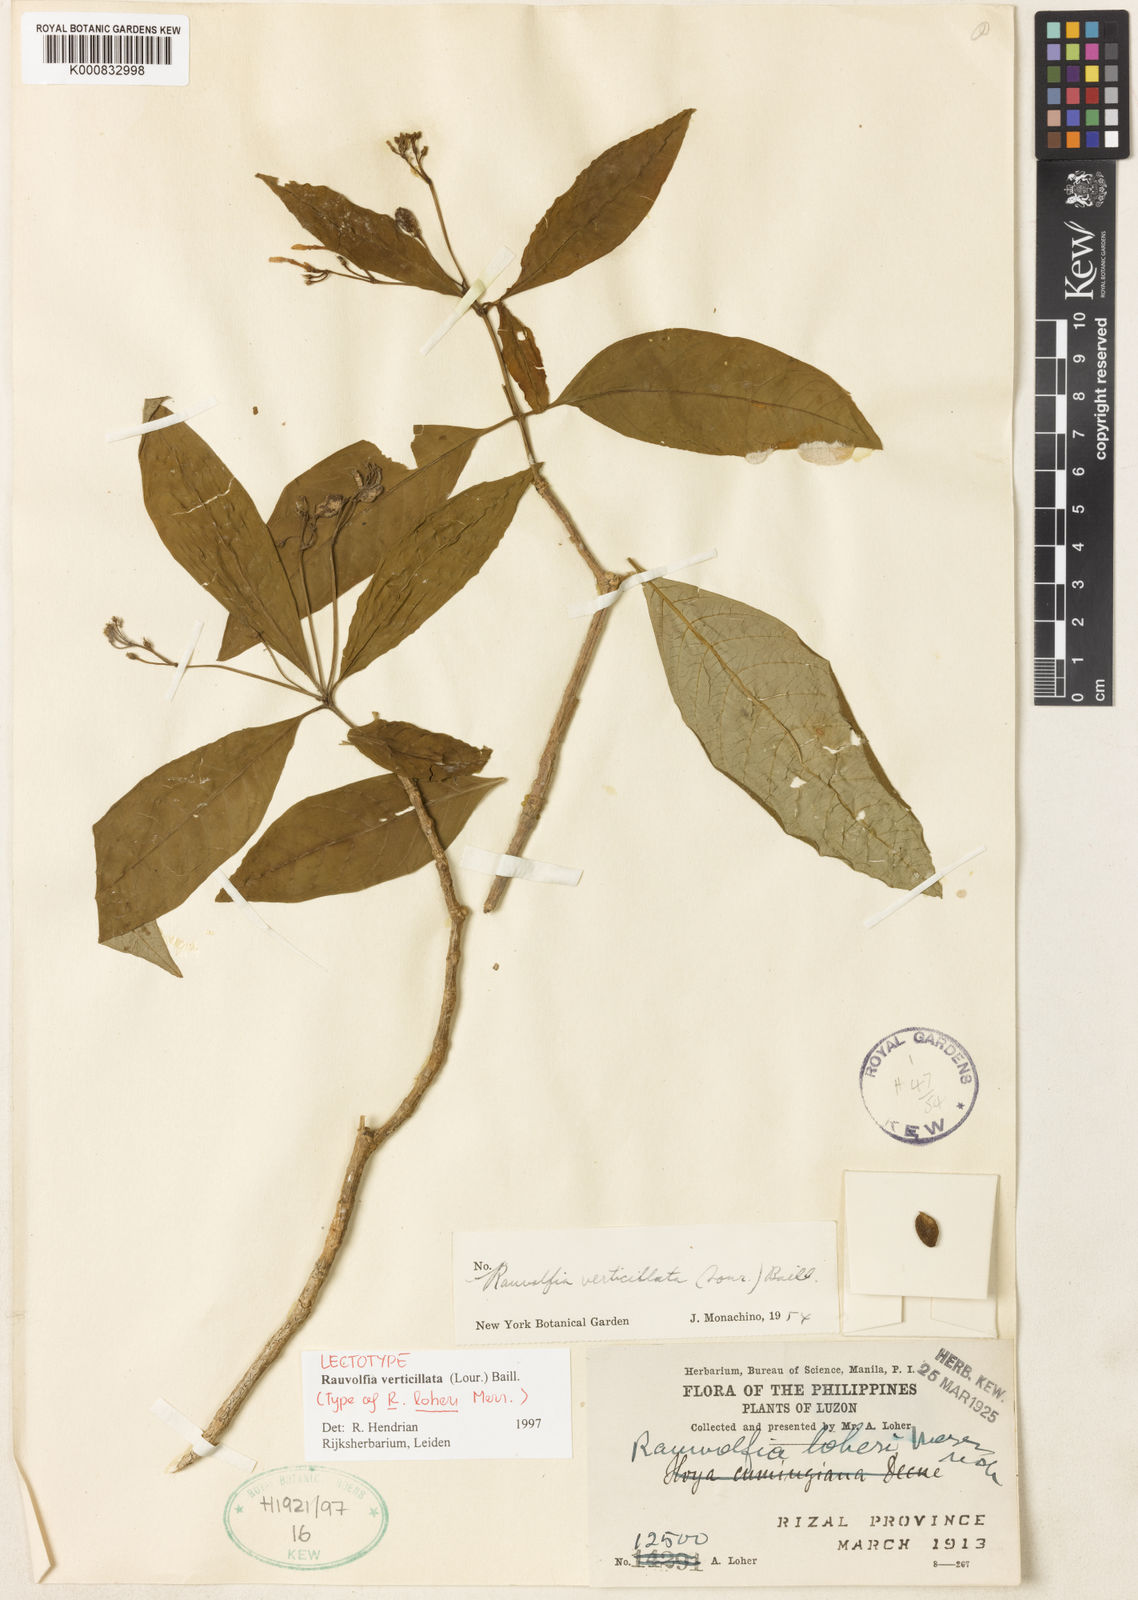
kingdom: Plantae
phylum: Tracheophyta
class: Magnoliopsida
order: Gentianales
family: Apocynaceae
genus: Rauvolfia
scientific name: Rauvolfia verticillata
